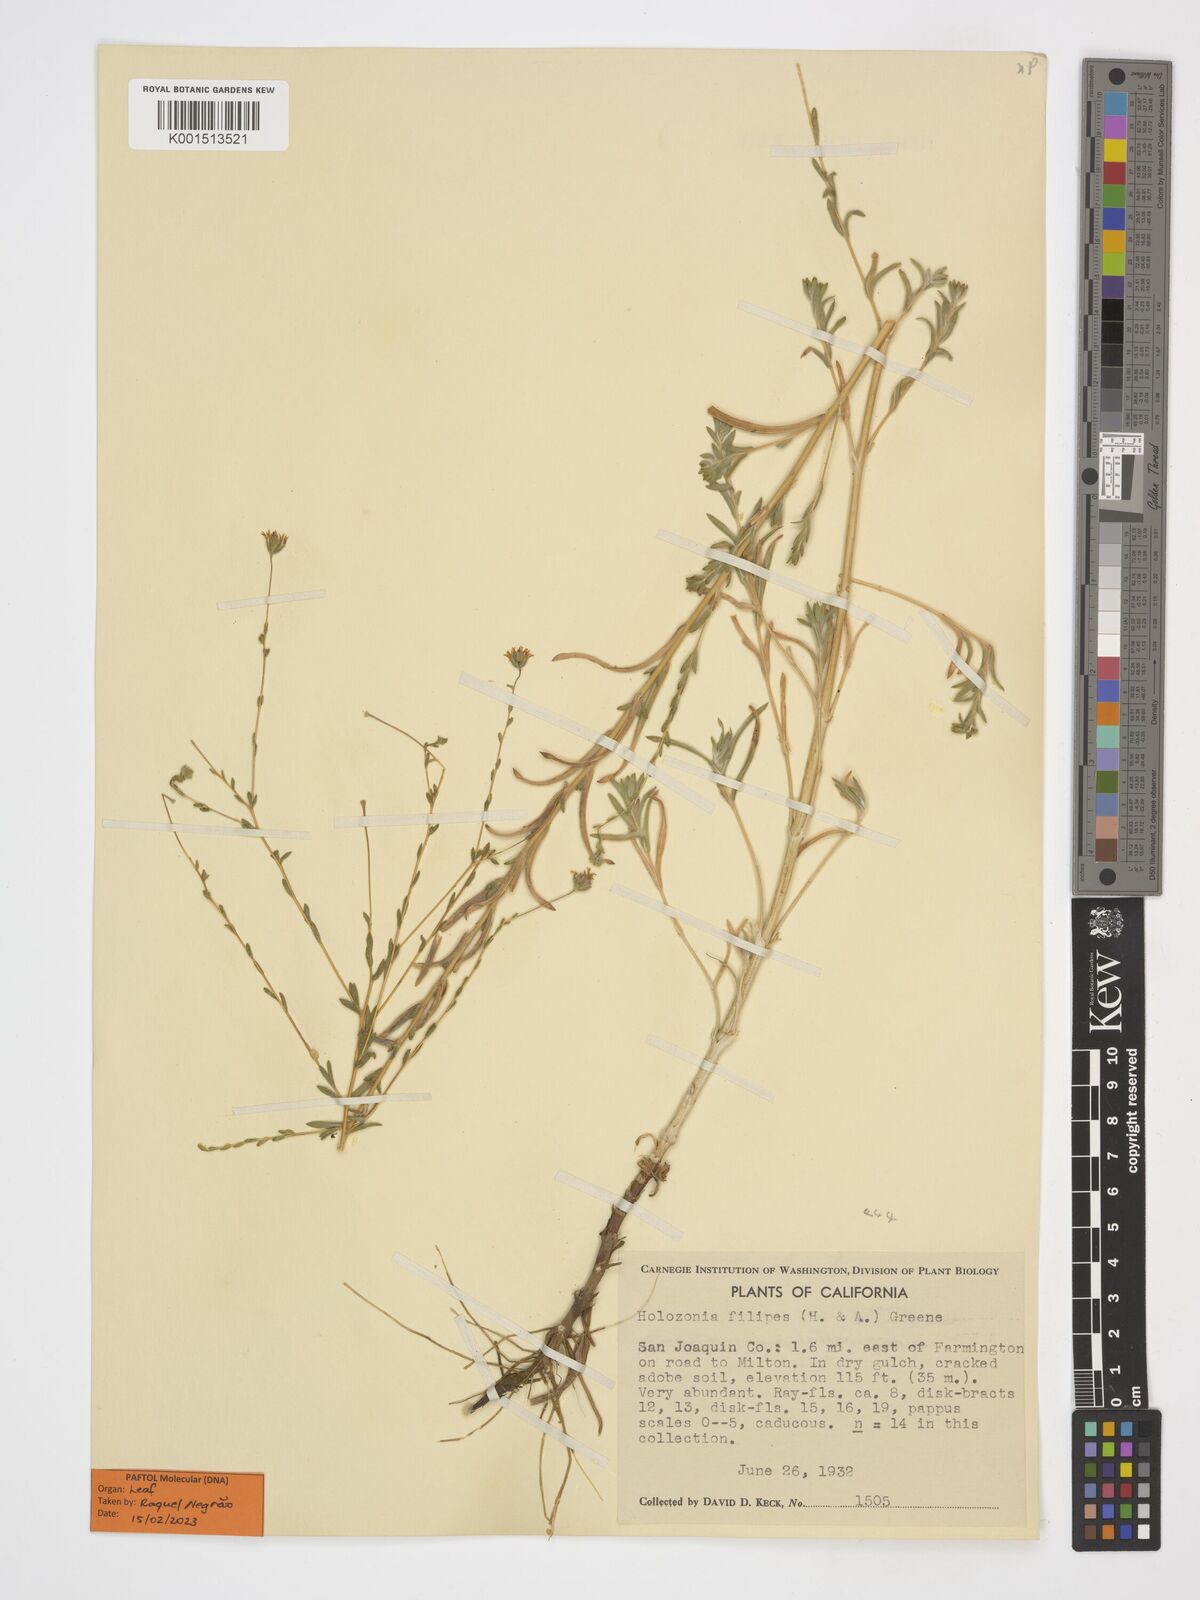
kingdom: Plantae
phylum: Tracheophyta
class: Magnoliopsida
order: Asterales
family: Asteraceae
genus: Holozonia
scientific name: Holozonia filipes
